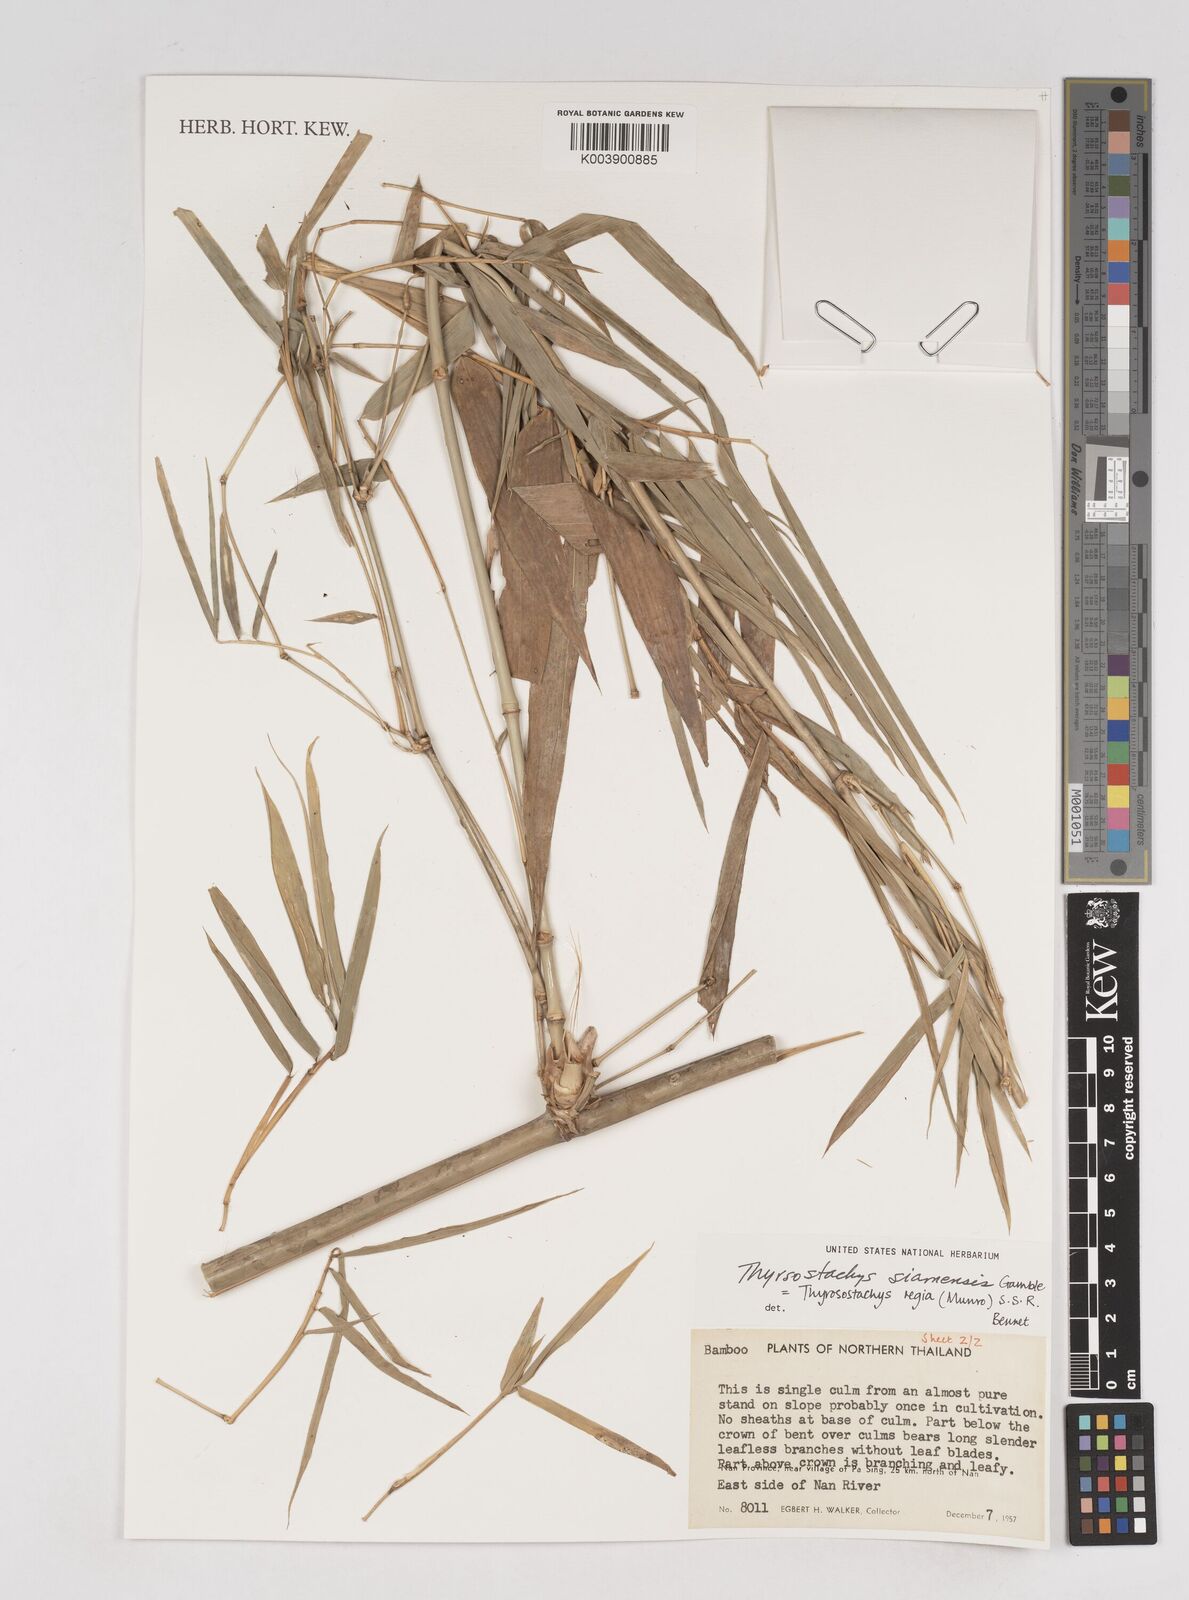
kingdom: Plantae
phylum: Tracheophyta
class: Liliopsida
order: Poales
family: Poaceae
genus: Thyrsostachys
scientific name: Thyrsostachys siamensis
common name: Thailand bamboo
